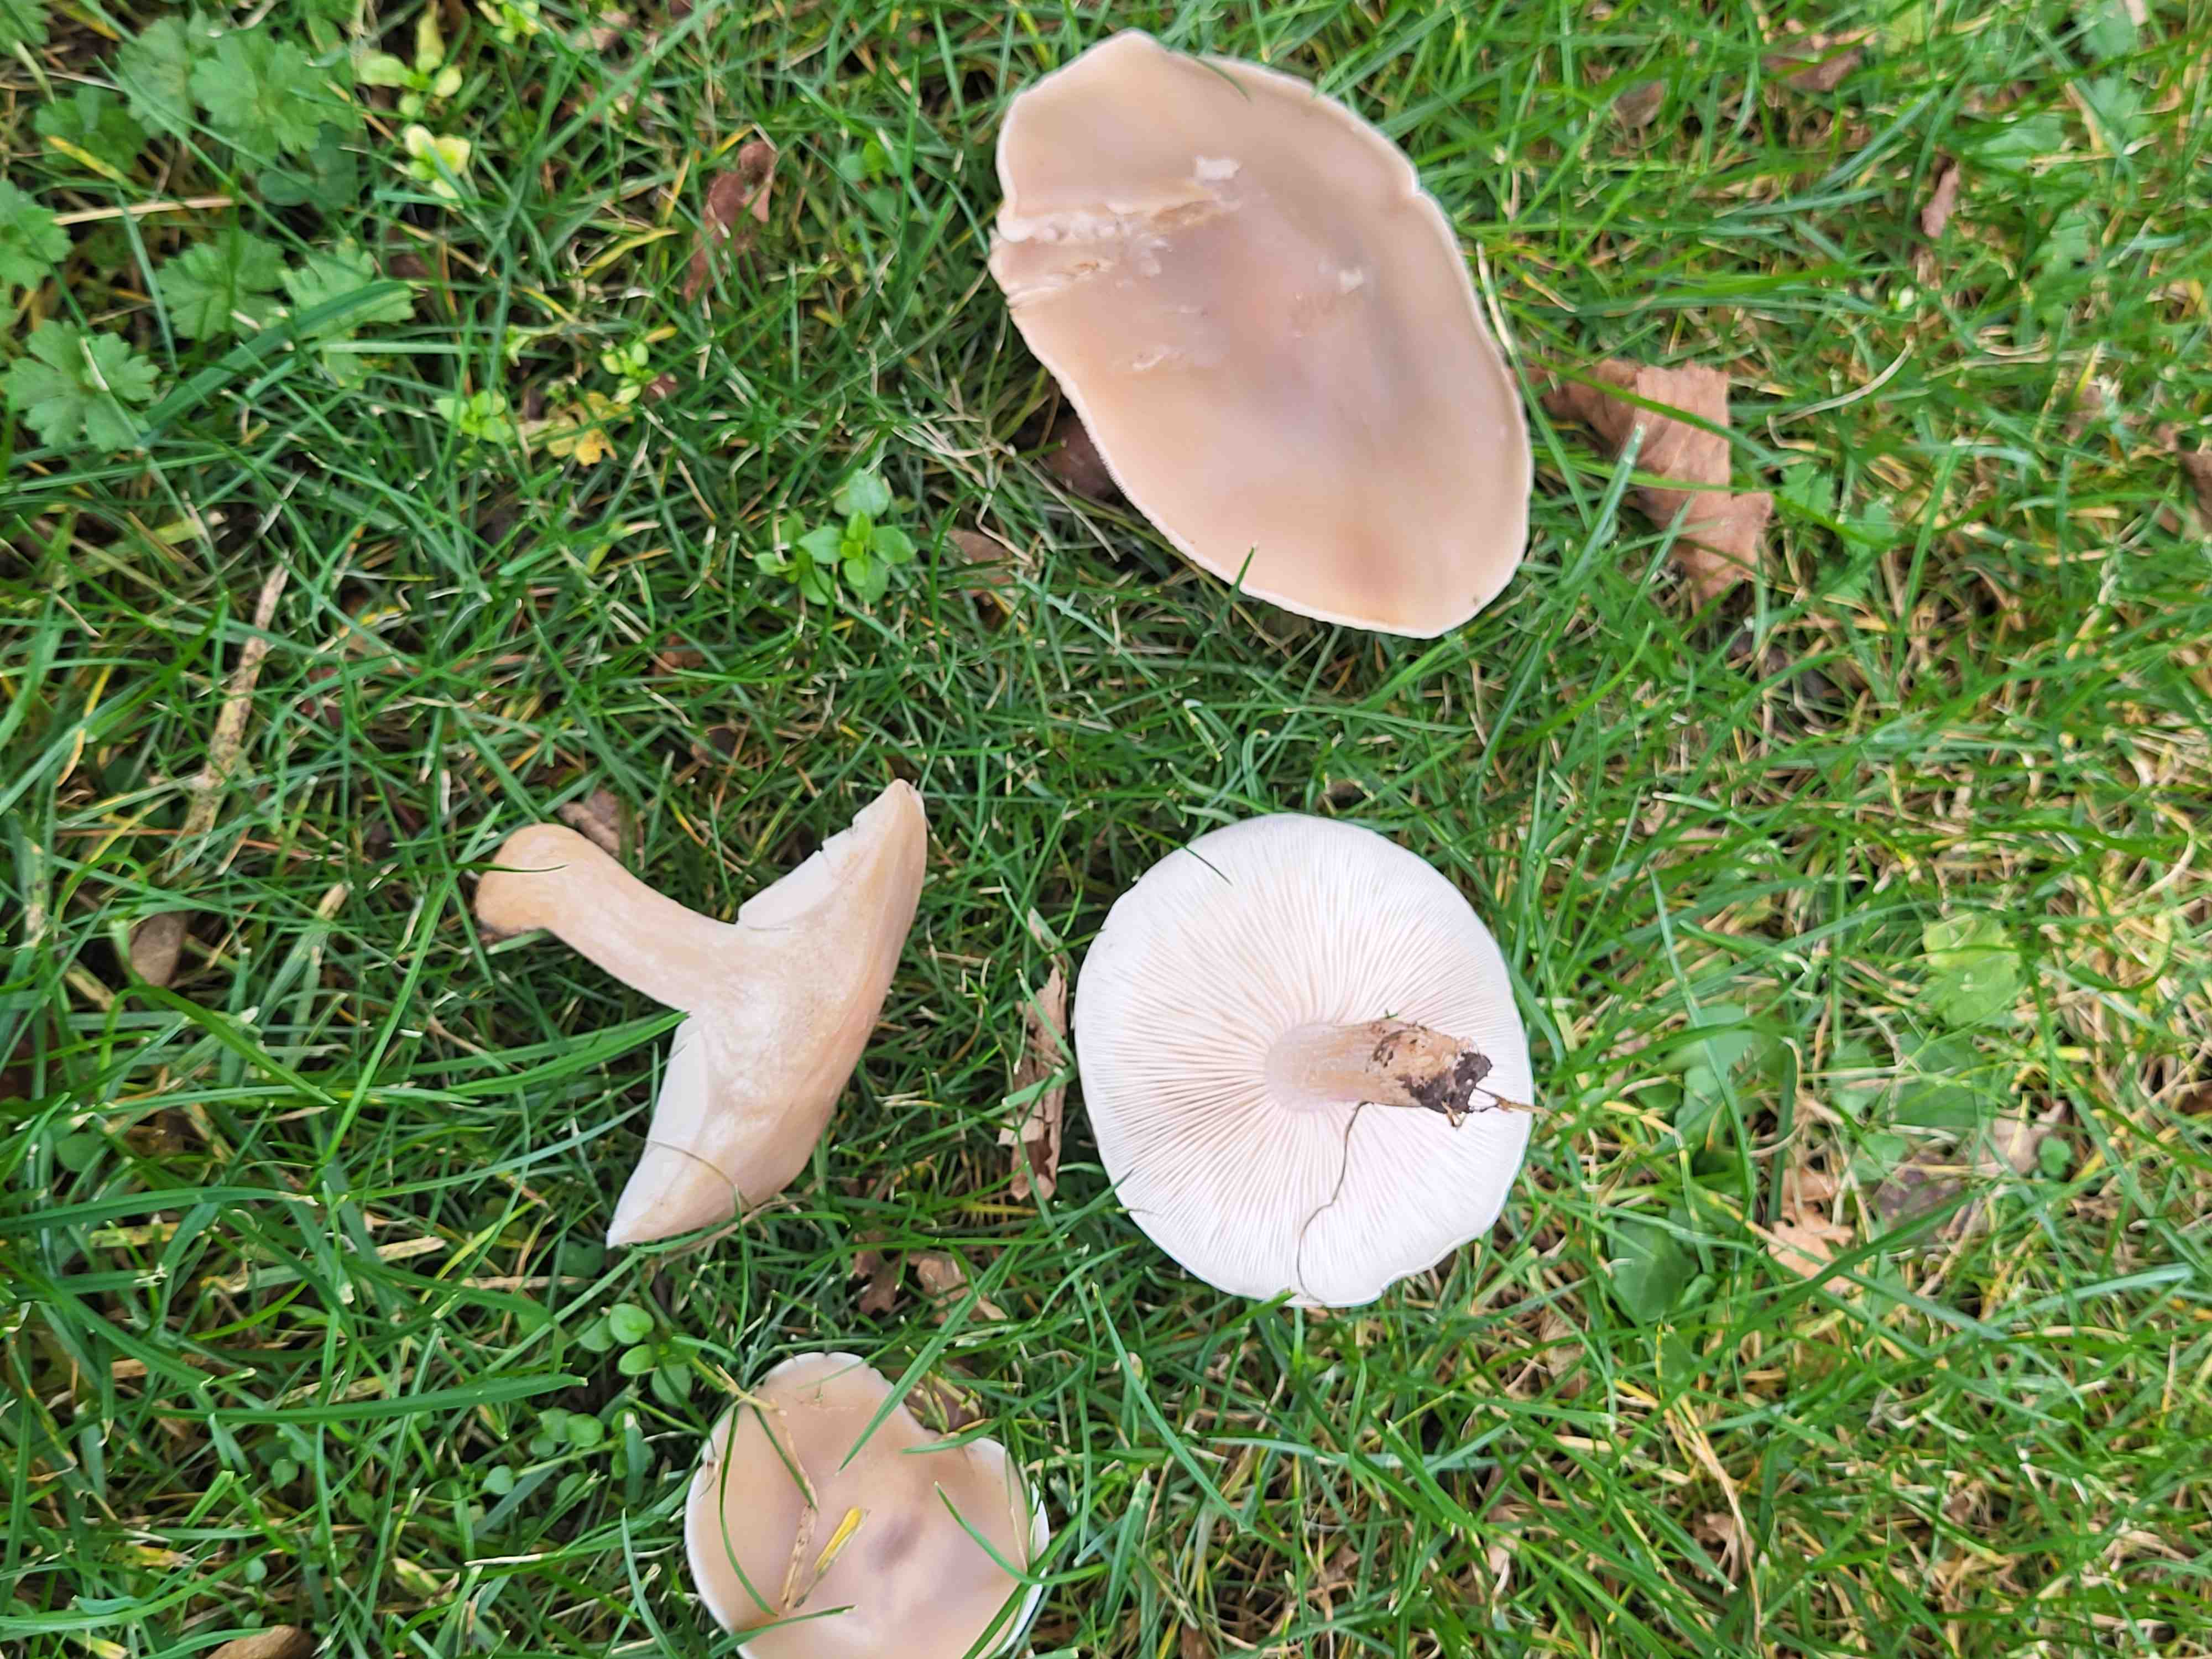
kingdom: Fungi
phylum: Basidiomycota
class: Agaricomycetes
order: Agaricales
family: Tricholomataceae
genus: Lepista
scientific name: Lepista personata
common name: bleg hekseringshat
